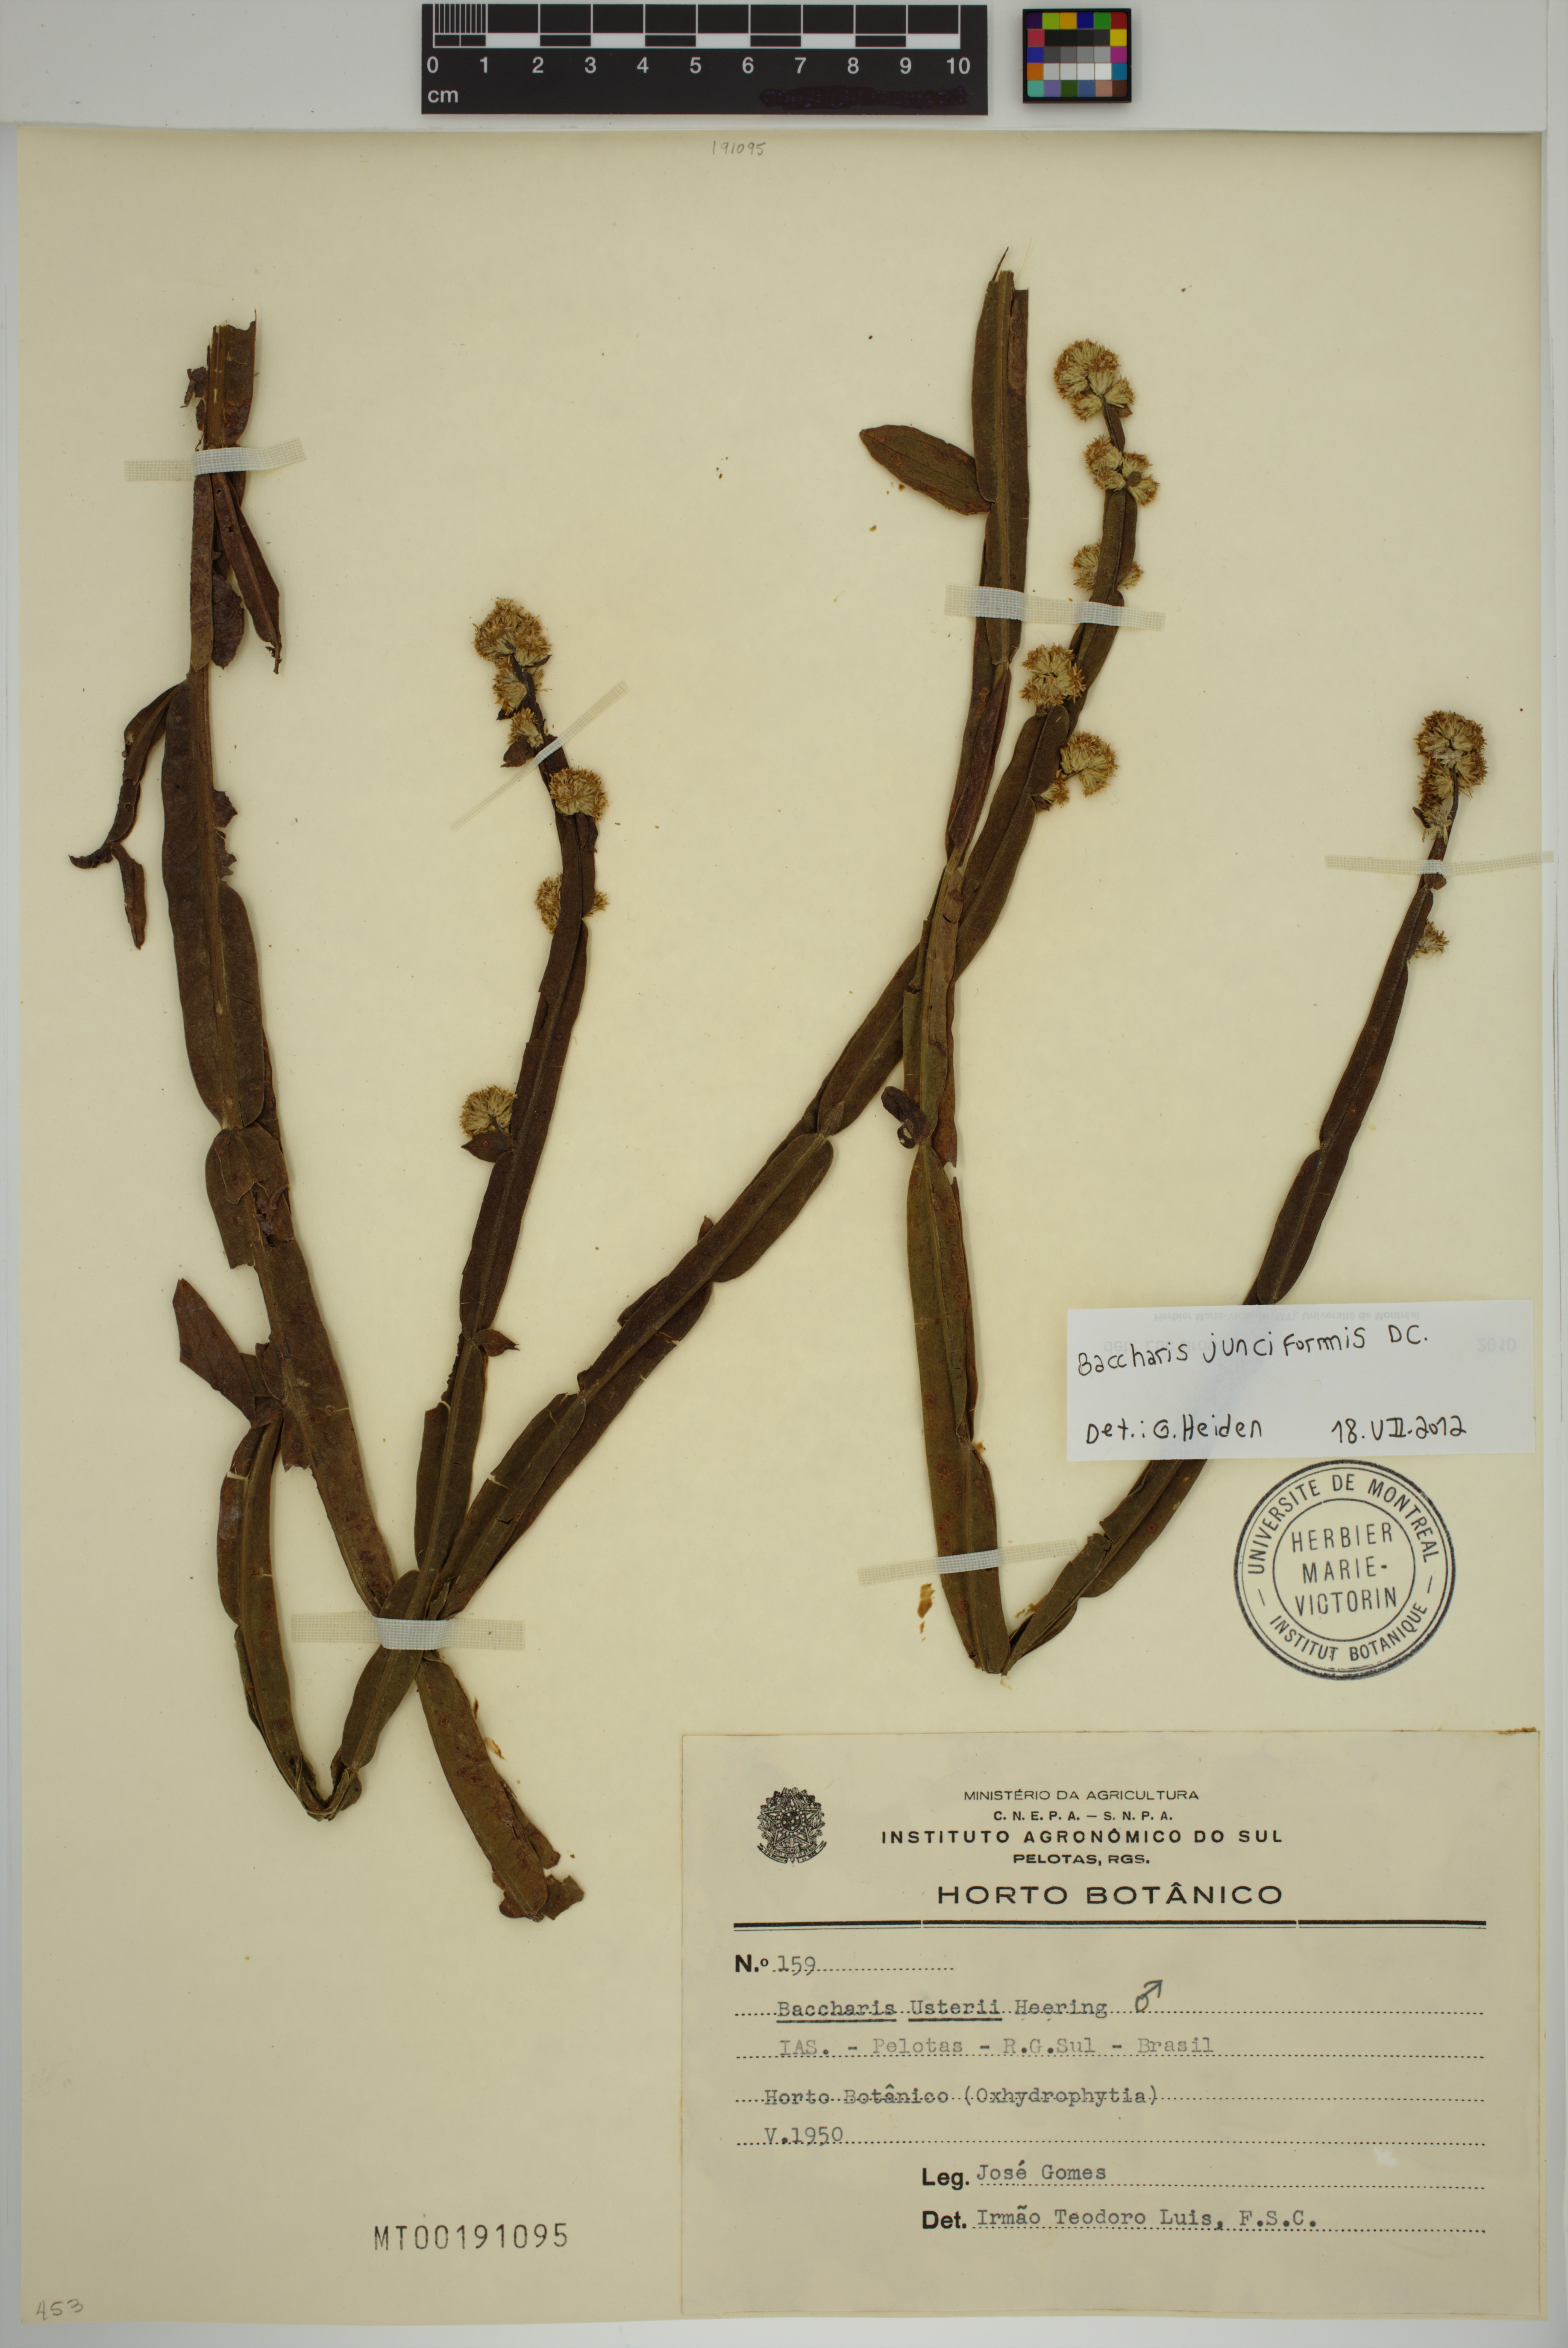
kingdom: Plantae
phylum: Tracheophyta
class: Magnoliopsida
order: Asterales
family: Asteraceae
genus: Baccharis
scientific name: Baccharis junciformis
